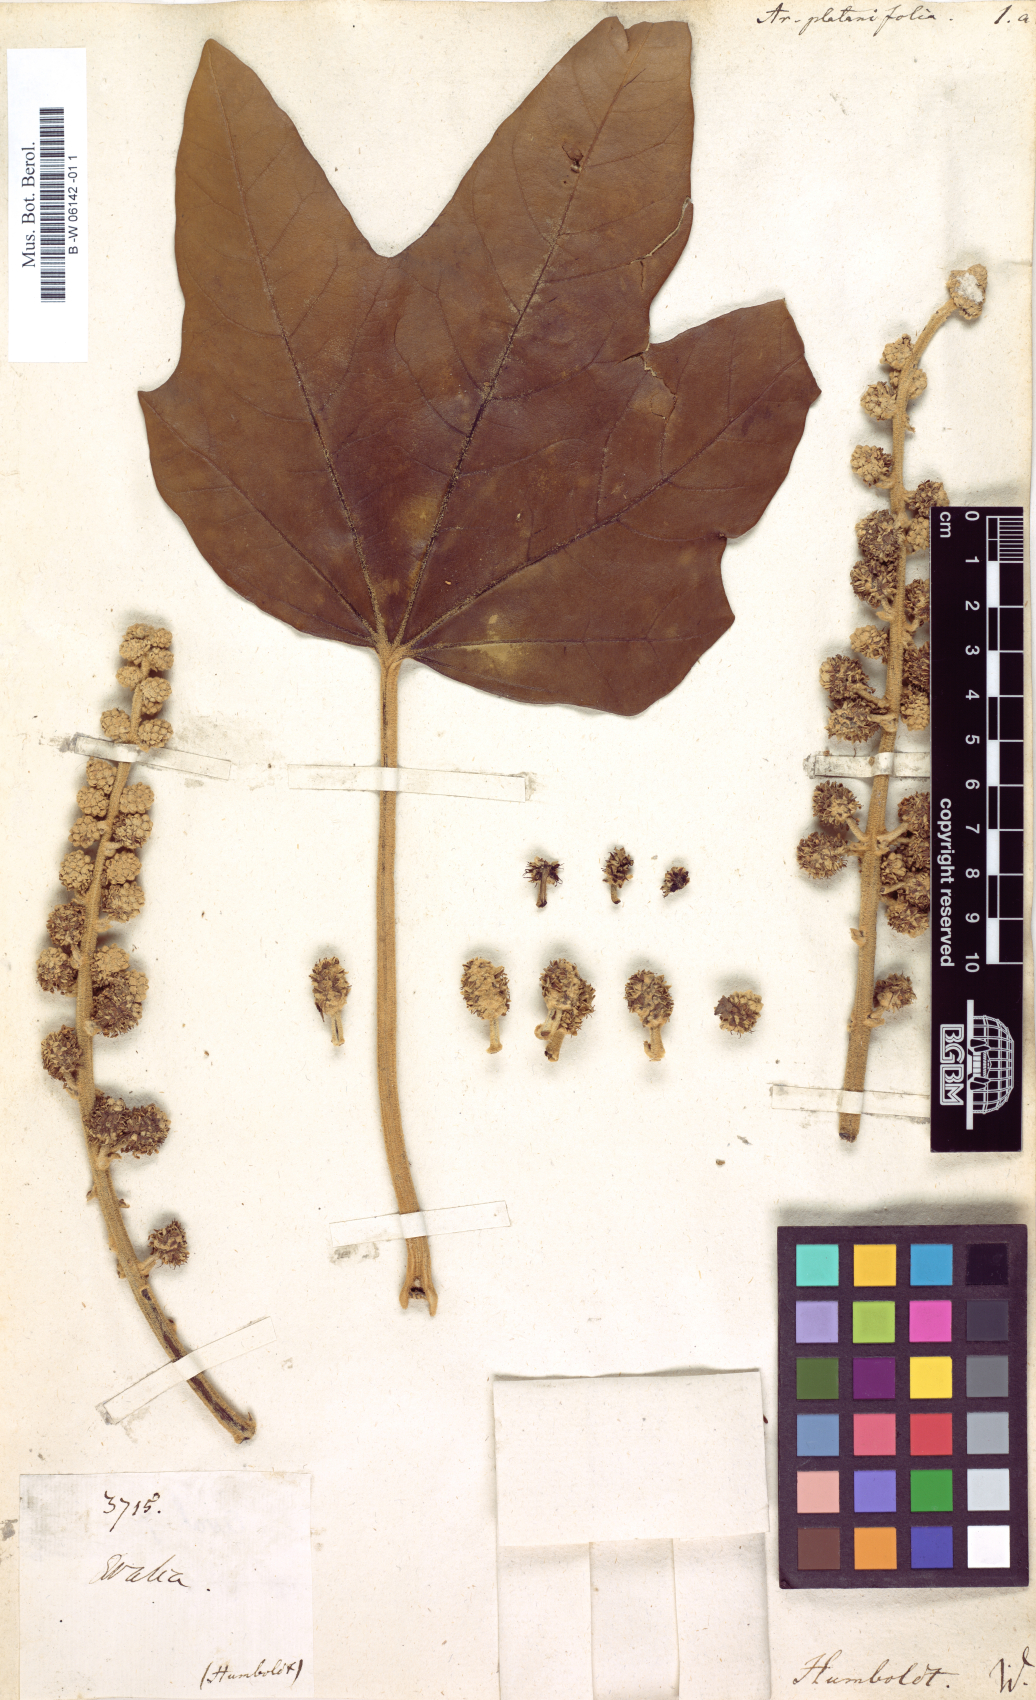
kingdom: Plantae
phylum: Tracheophyta
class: Magnoliopsida
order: Apiales
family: Araliaceae
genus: Aralia
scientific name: Aralia platanifolia
